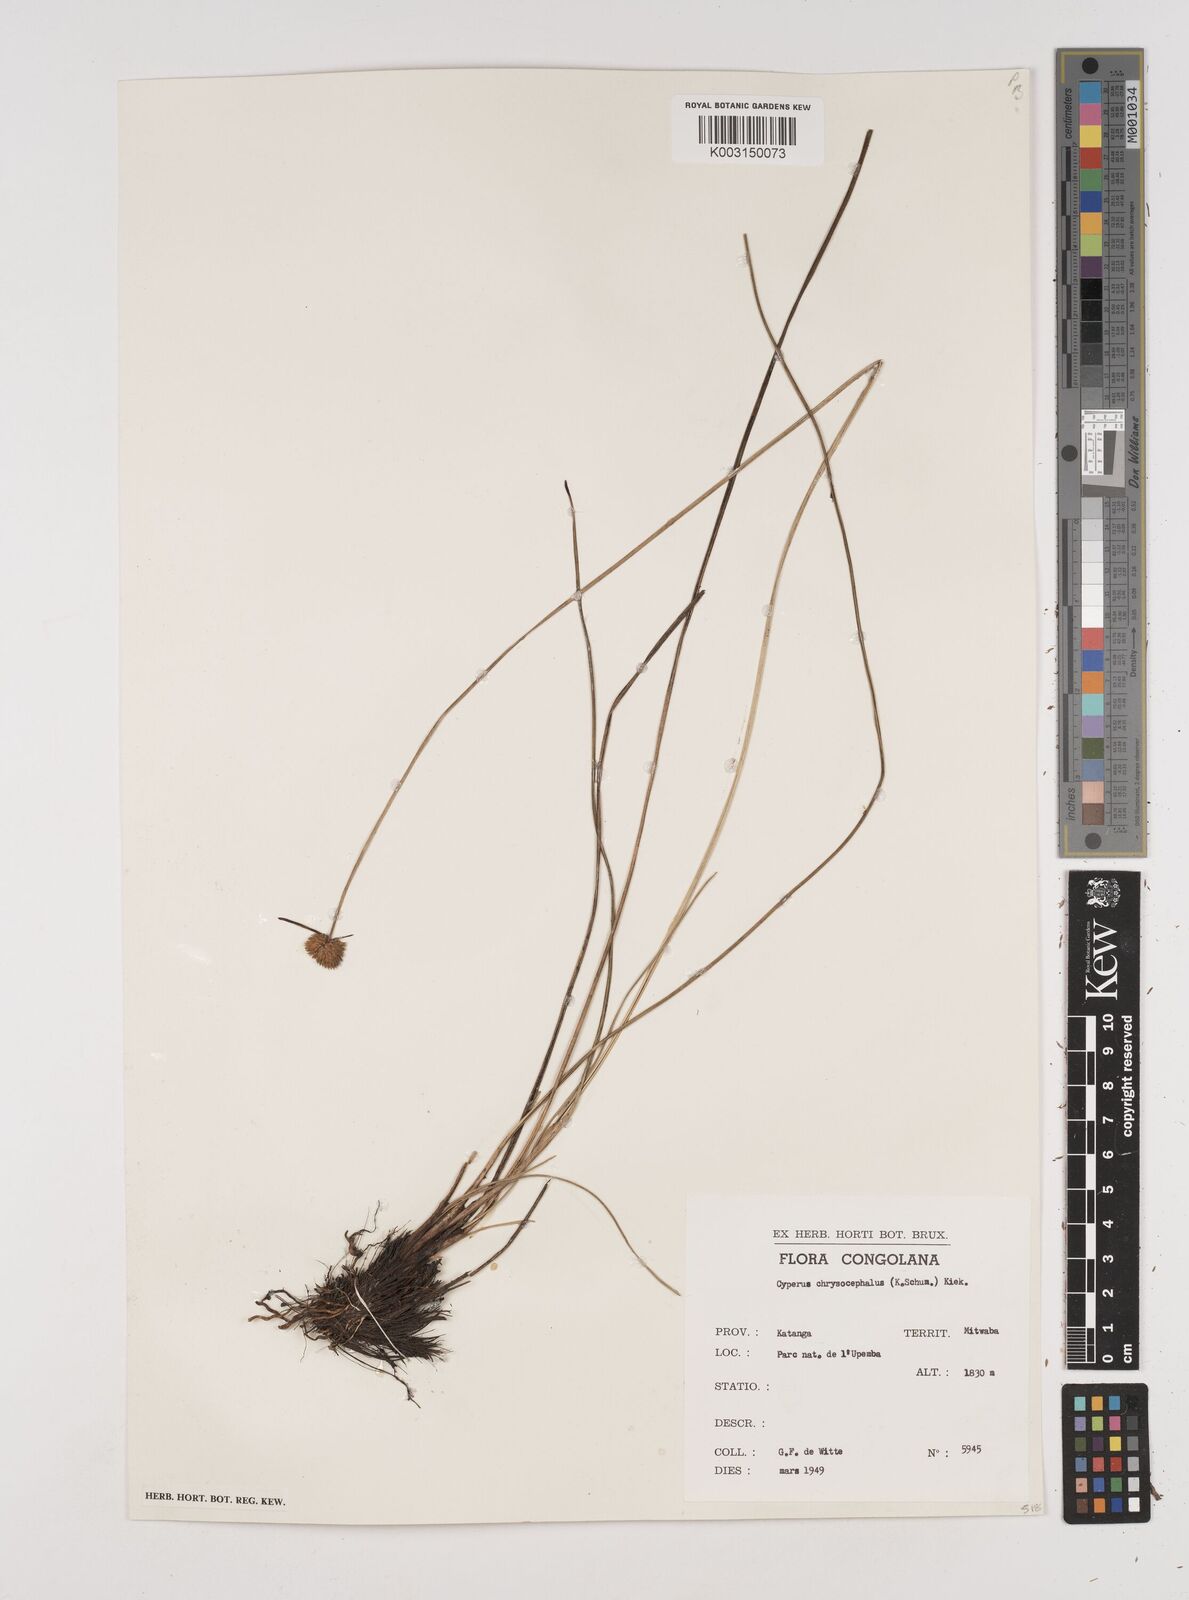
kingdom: Plantae
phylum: Tracheophyta
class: Liliopsida
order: Poales
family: Cyperaceae
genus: Cyperus
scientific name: Cyperus chrysocephalus
